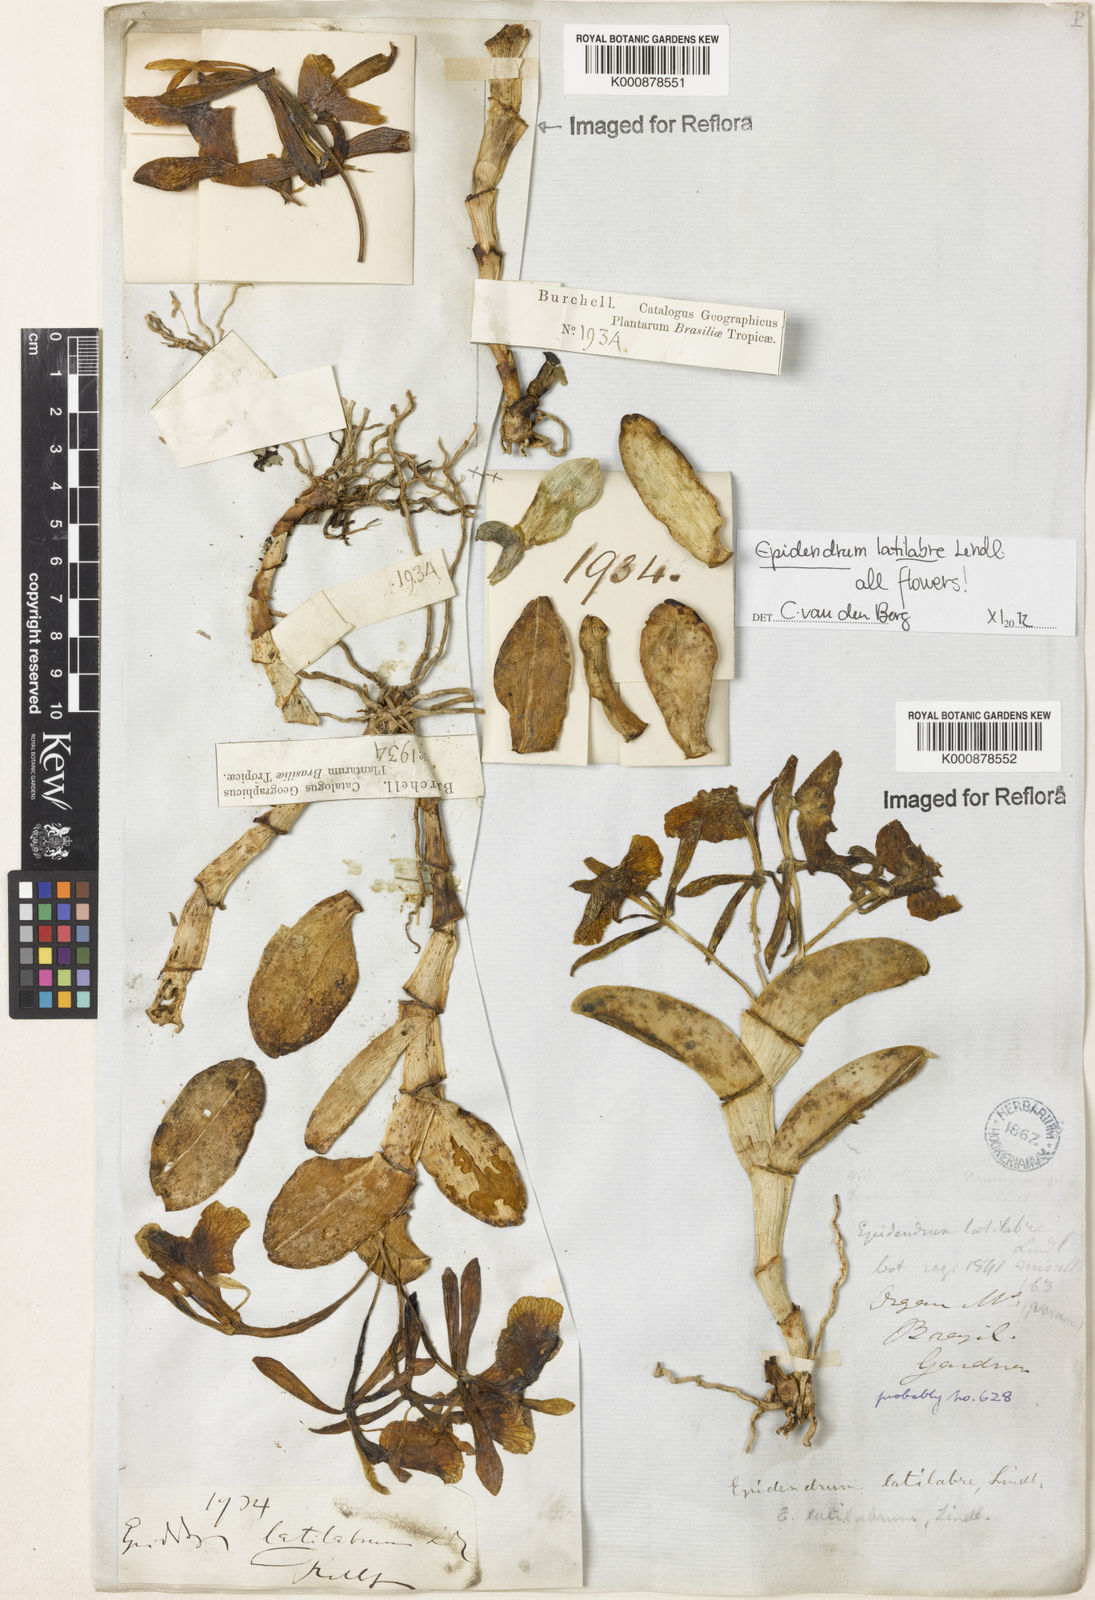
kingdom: Plantae
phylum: Tracheophyta
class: Liliopsida
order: Asparagales
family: Orchidaceae
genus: Epidendrum
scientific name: Epidendrum latilabre
